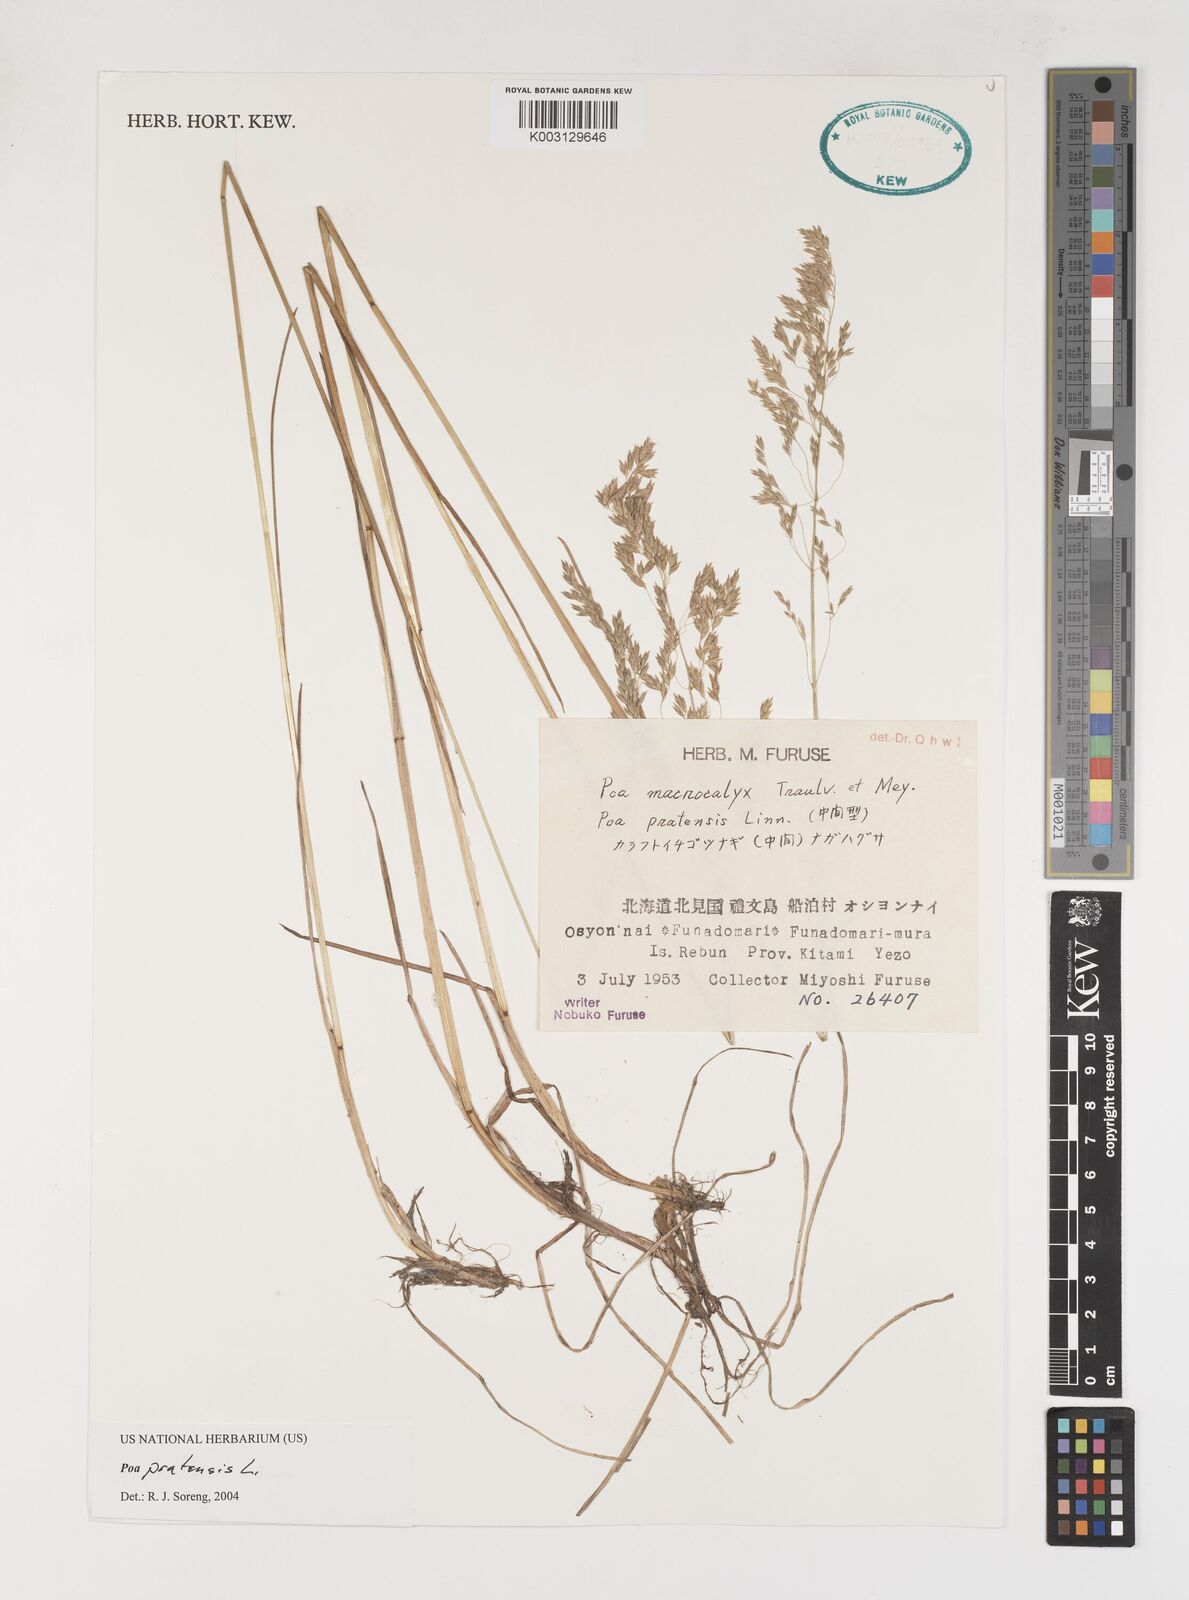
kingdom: Plantae
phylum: Tracheophyta
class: Liliopsida
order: Poales
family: Poaceae
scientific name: Poaceae
